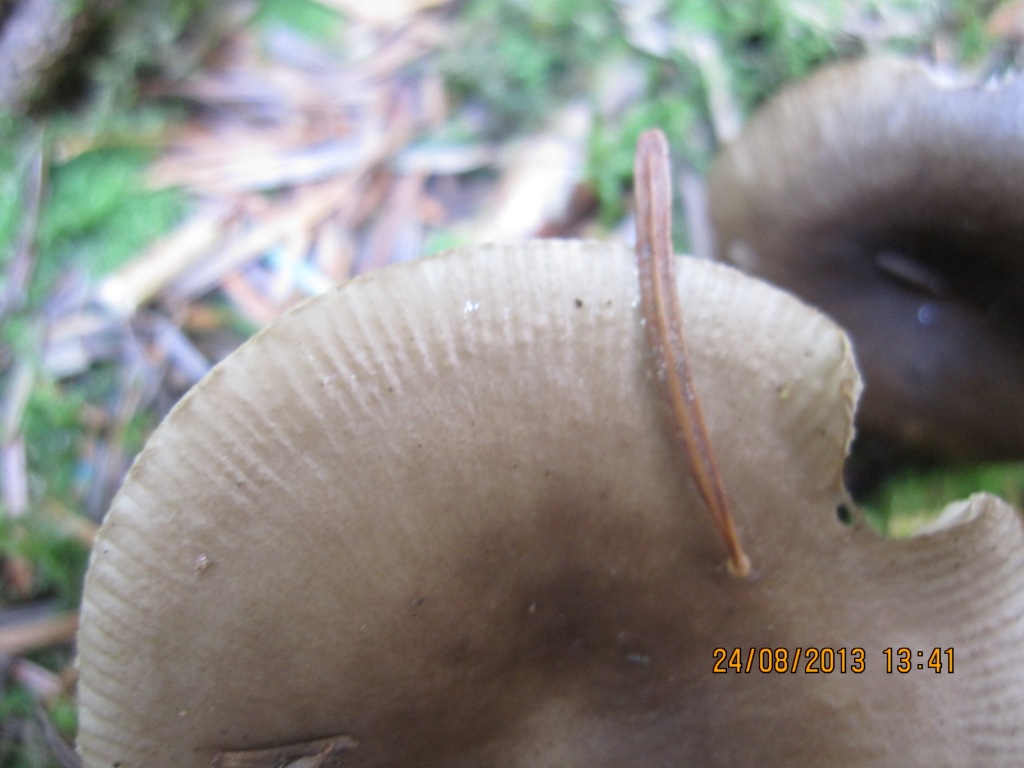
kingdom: Fungi
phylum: Basidiomycota
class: Agaricomycetes
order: Russulales
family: Russulaceae
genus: Russula
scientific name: Russula amoenolens
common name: skarp kam-skørhat
